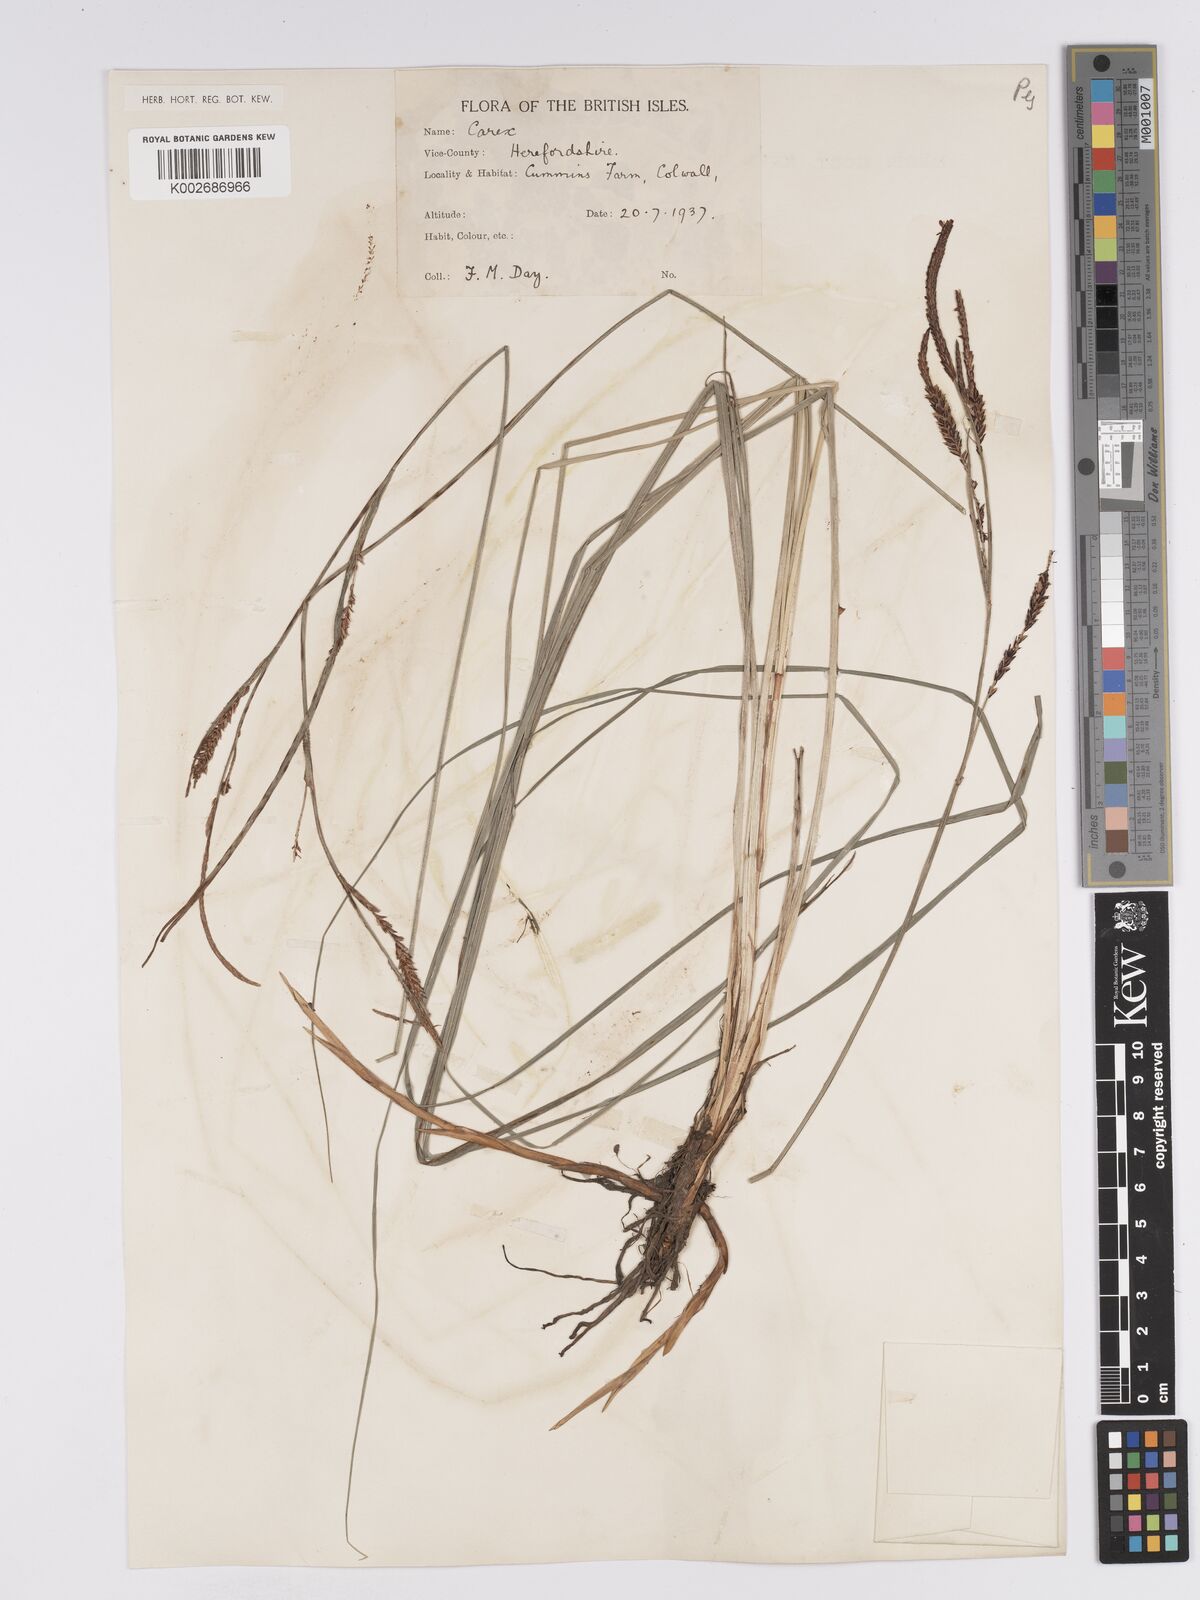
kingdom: Plantae
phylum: Tracheophyta
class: Liliopsida
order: Poales
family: Cyperaceae
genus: Carex
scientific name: Carex nigra
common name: Common sedge
